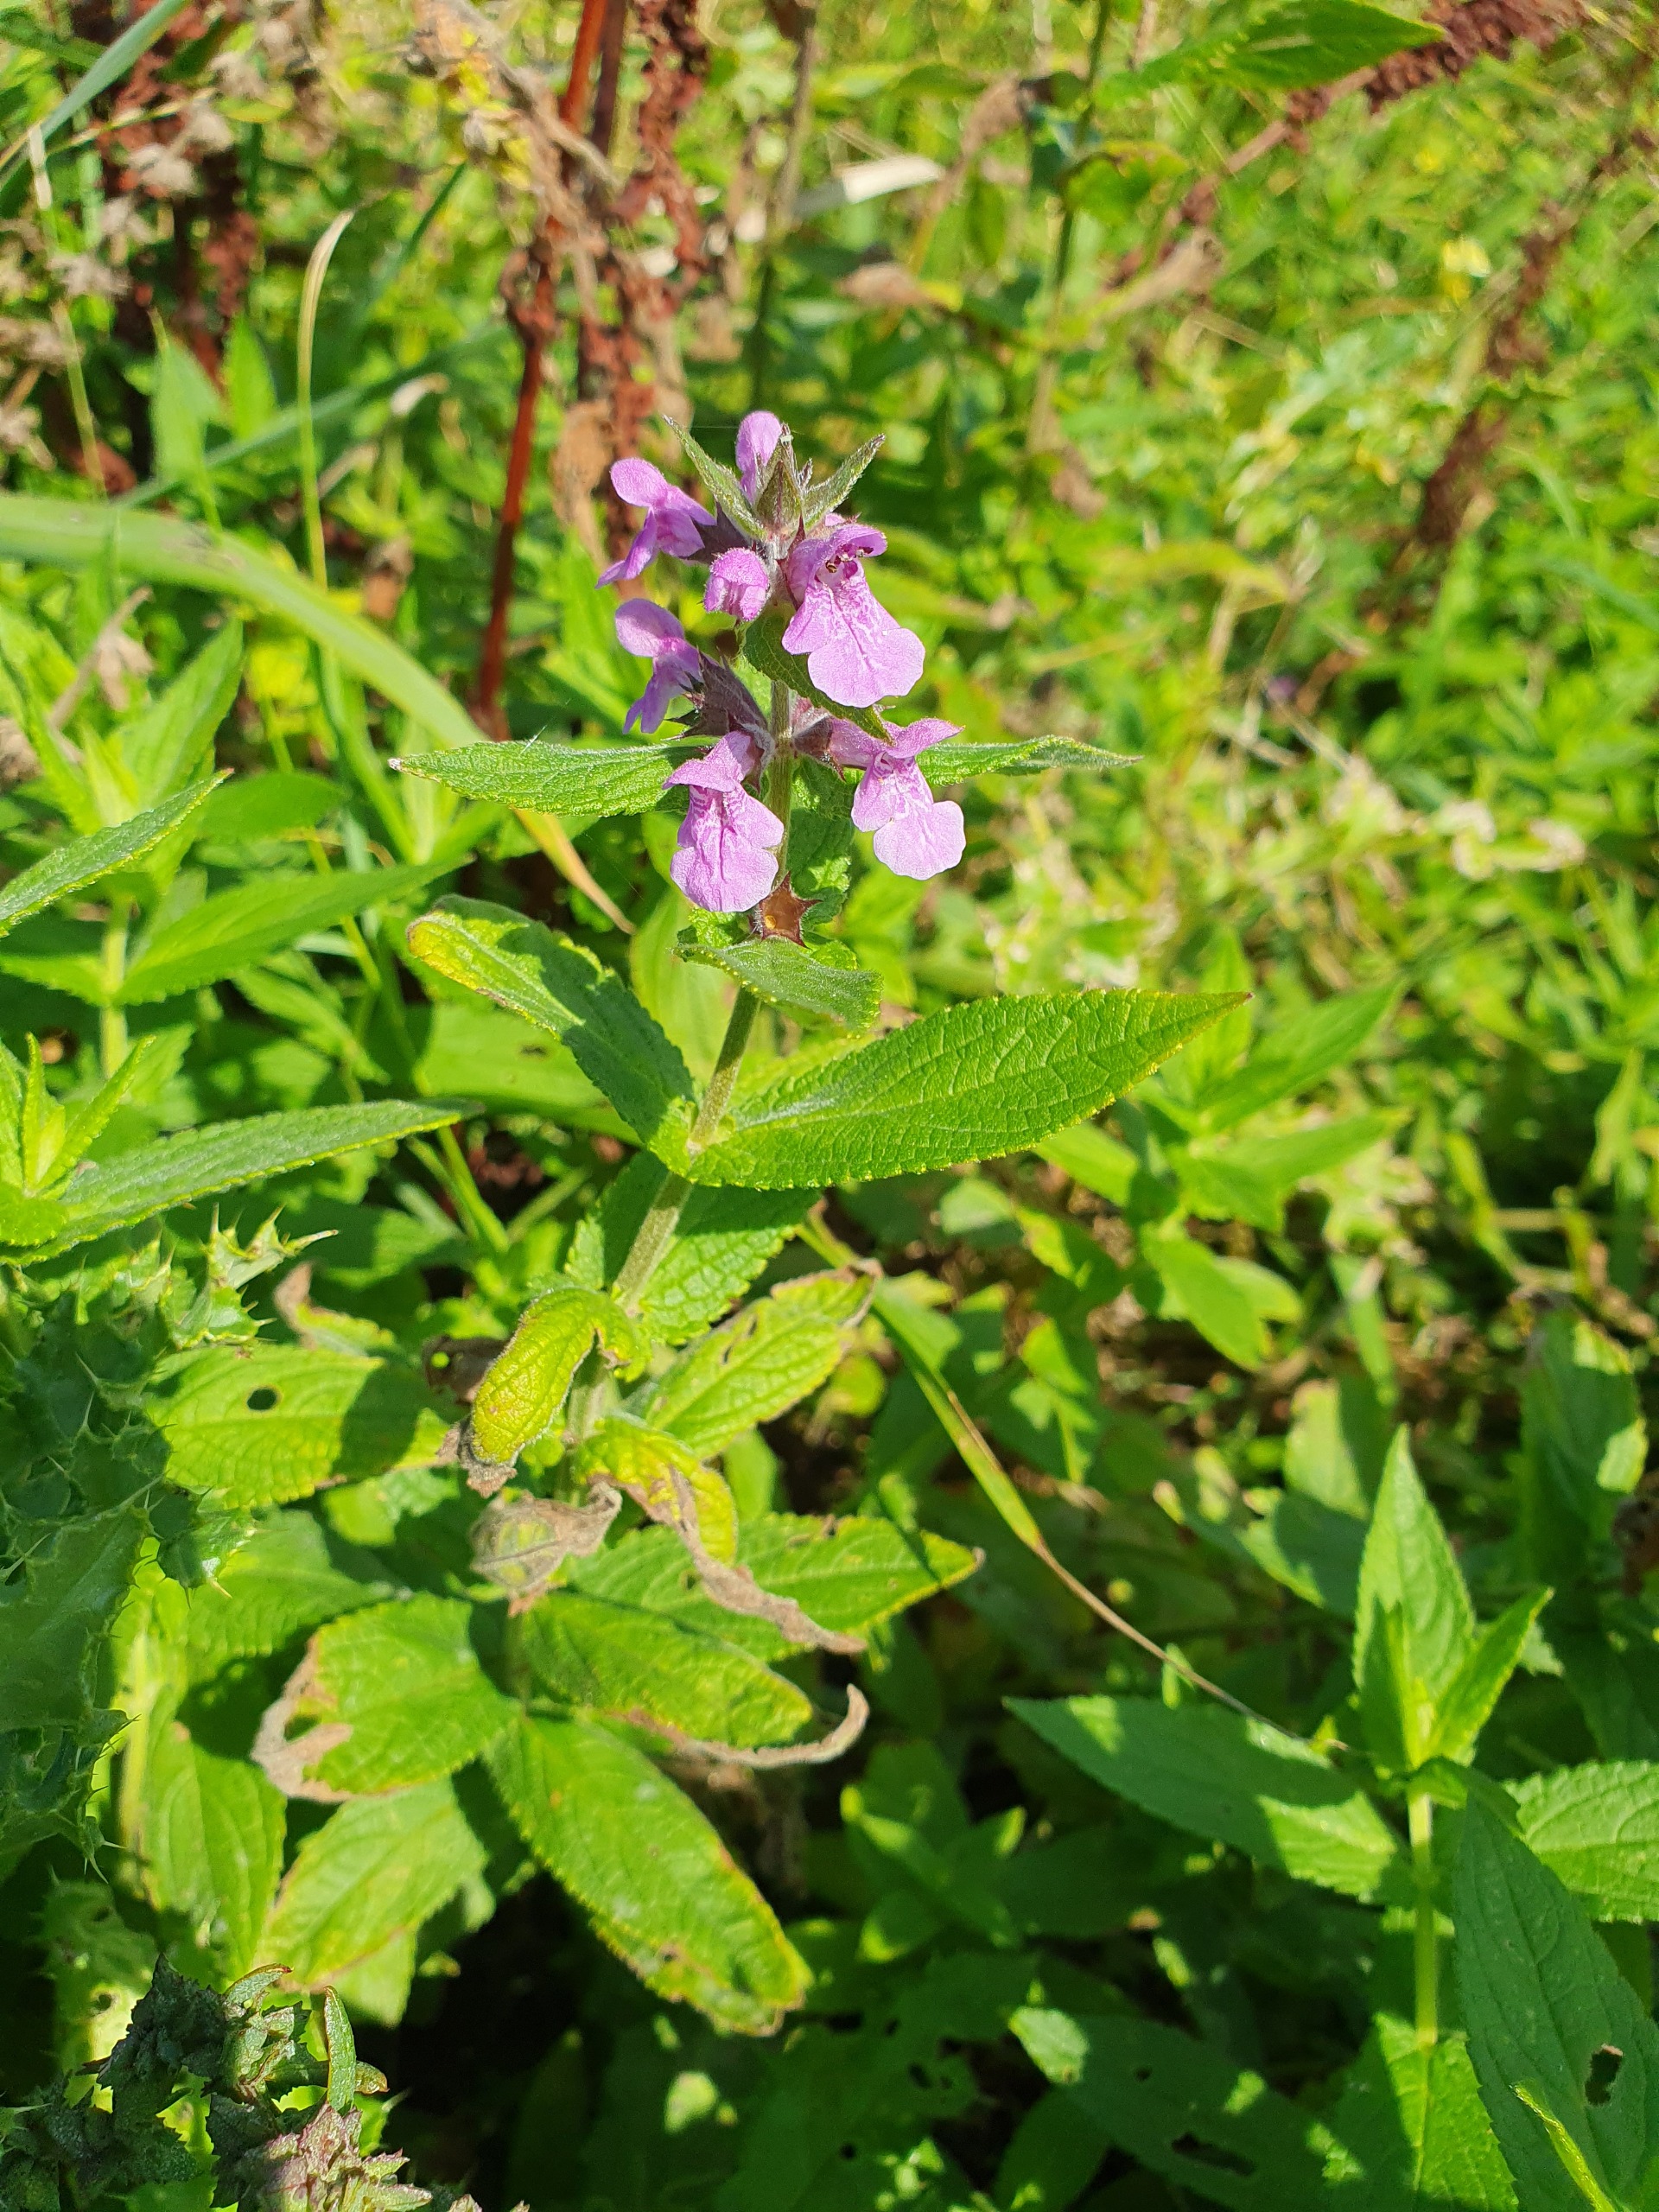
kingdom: Plantae
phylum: Tracheophyta
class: Magnoliopsida
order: Lamiales
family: Lamiaceae
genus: Stachys
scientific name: Stachys palustris
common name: Kær-galtetand
